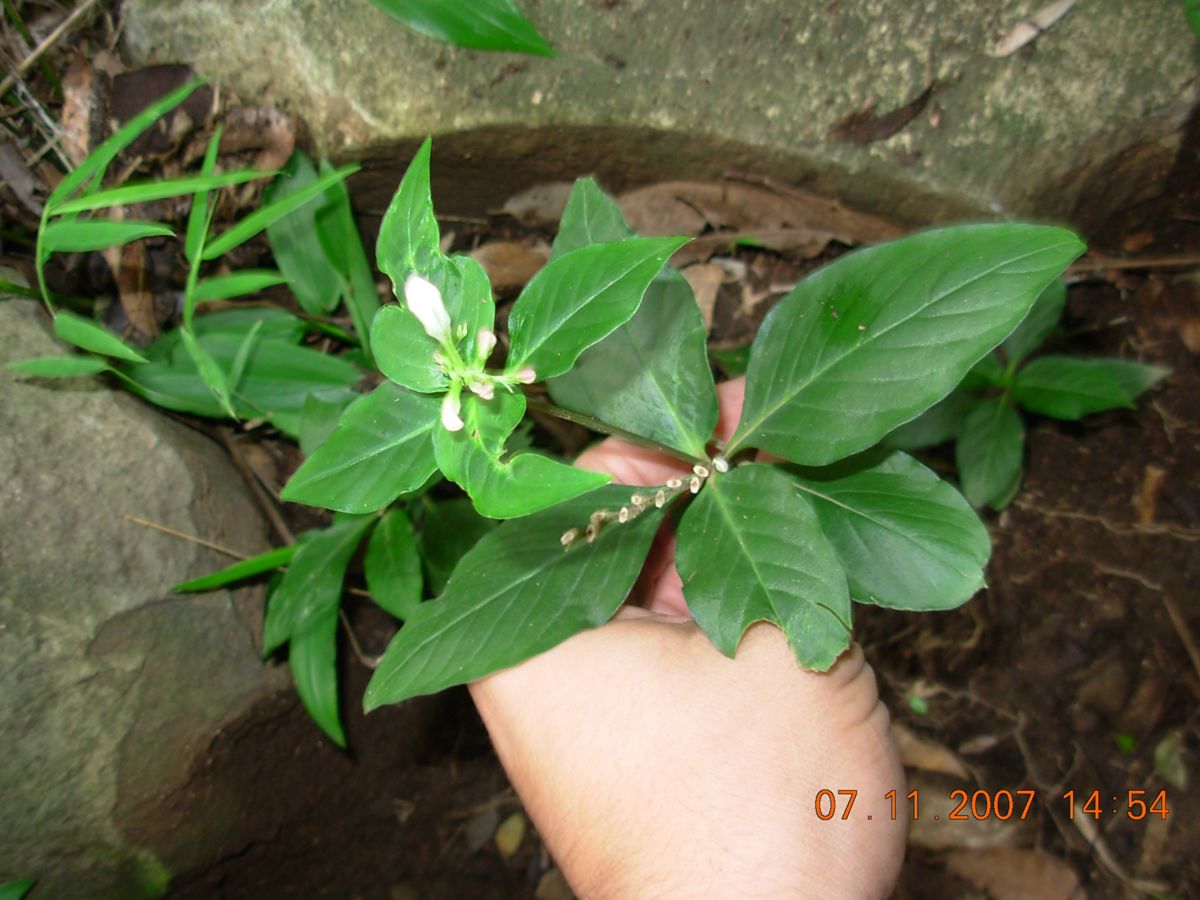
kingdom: Plantae
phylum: Tracheophyta
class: Magnoliopsida
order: Gentianales
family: Loganiaceae
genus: Spigelia
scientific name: Spigelia humboldtiana
